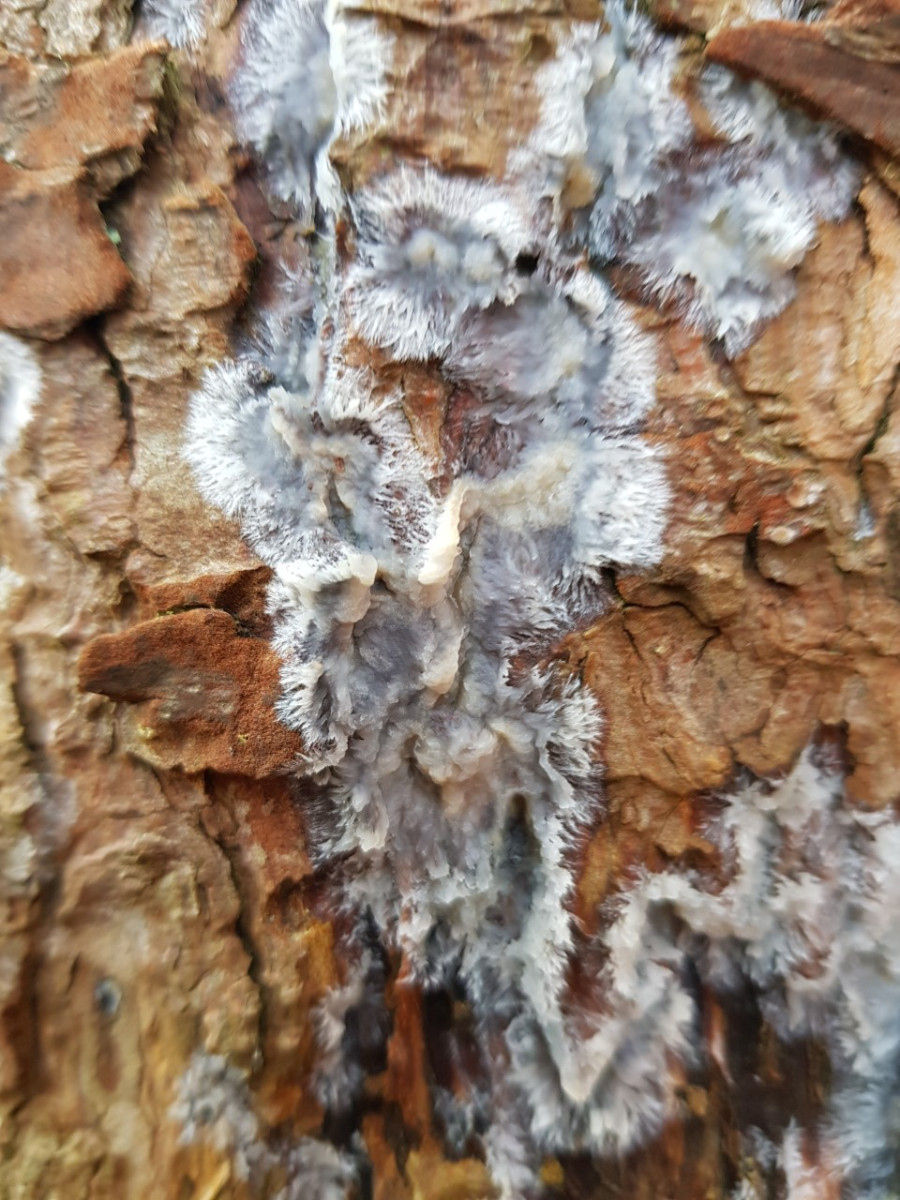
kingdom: Fungi
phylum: Basidiomycota
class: Agaricomycetes
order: Corticiales
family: Corticiaceae
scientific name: Corticiaceae
